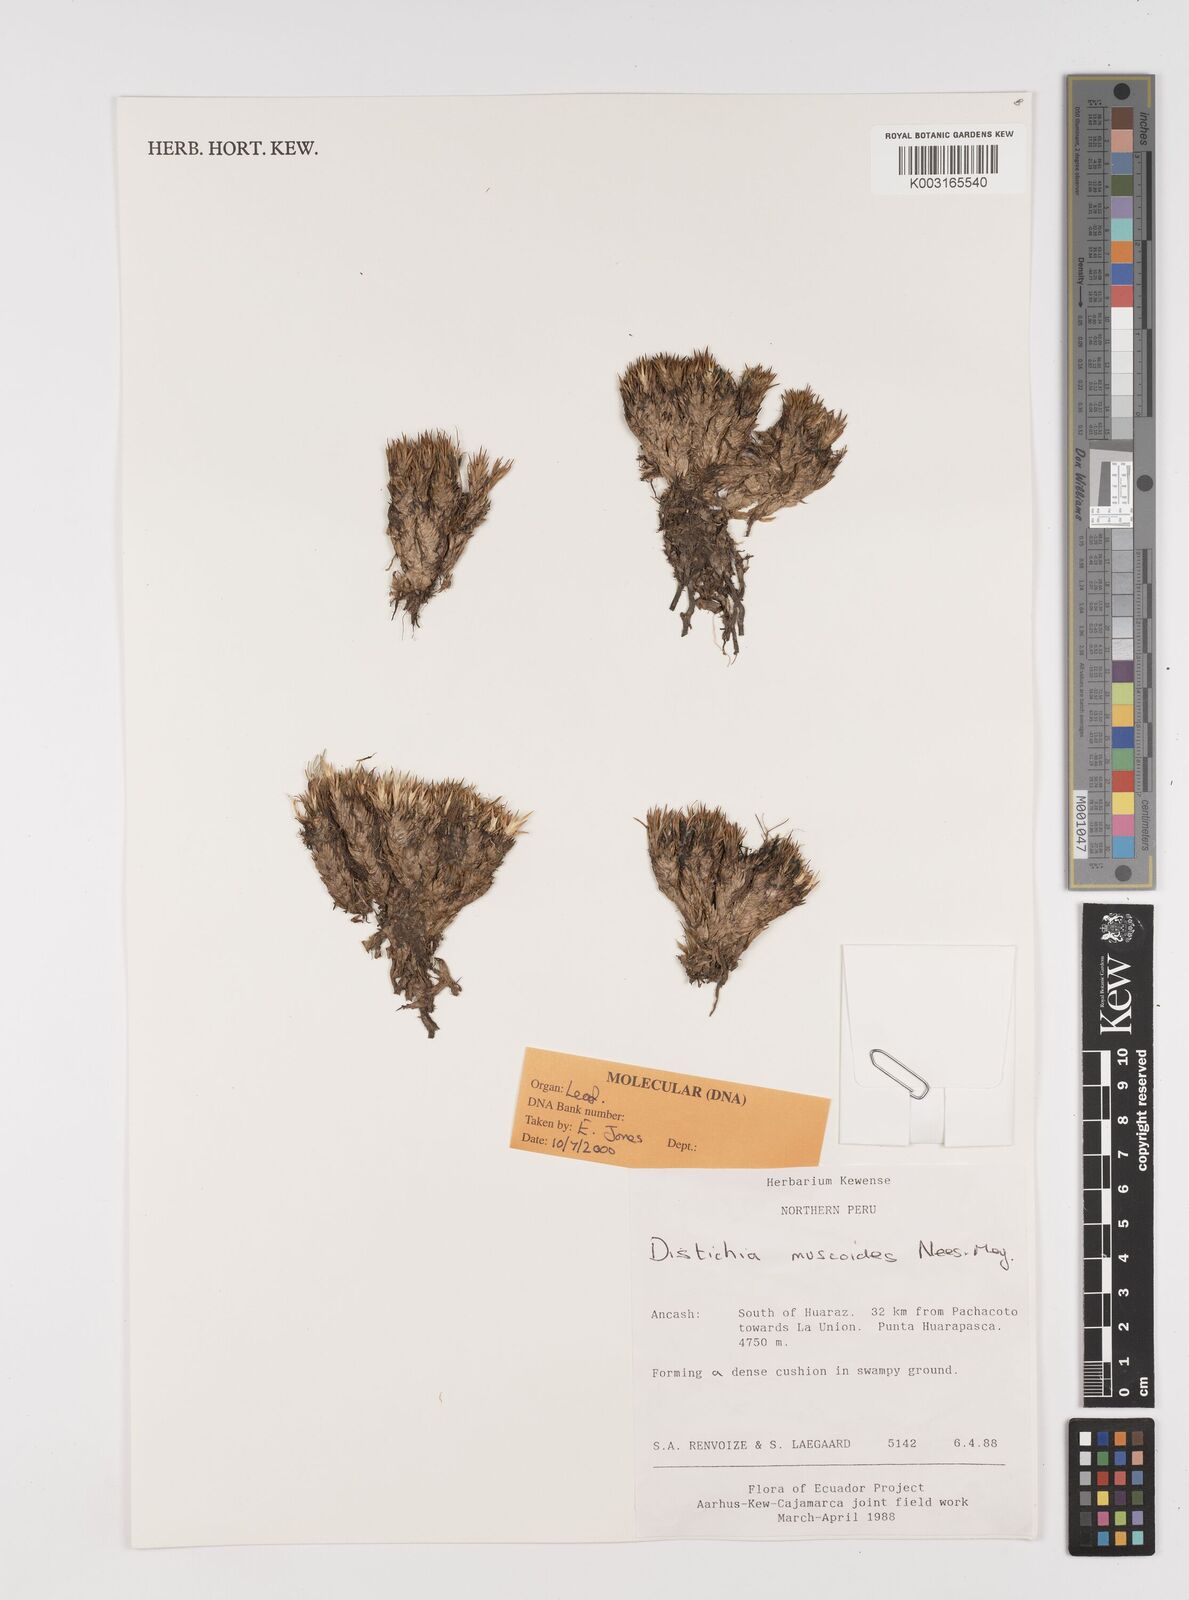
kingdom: Plantae
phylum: Tracheophyta
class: Liliopsida
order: Poales
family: Juncaceae
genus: Distichia
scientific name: Distichia muscoides
